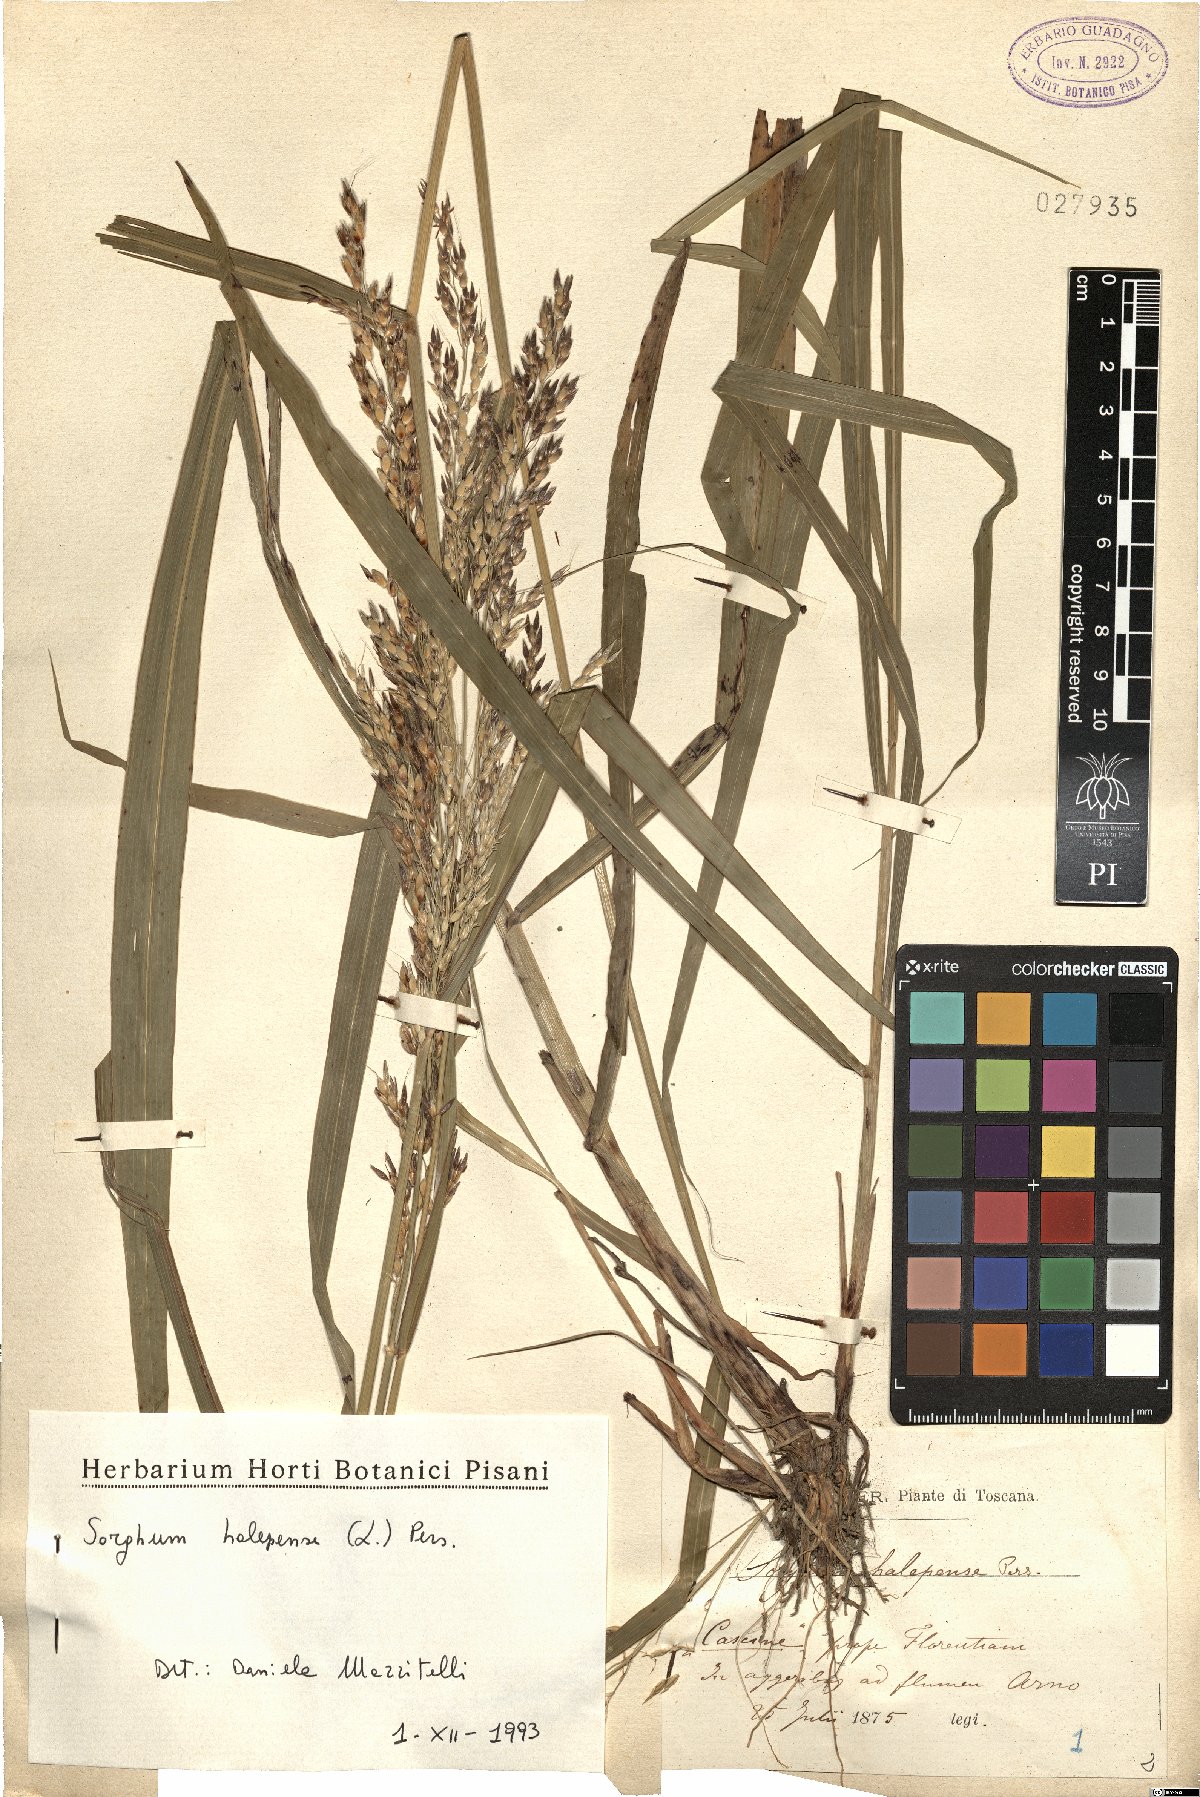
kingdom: Plantae
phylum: Tracheophyta
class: Liliopsida
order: Poales
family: Poaceae
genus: Sorghum
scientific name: Sorghum halepense
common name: Johnson-grass
